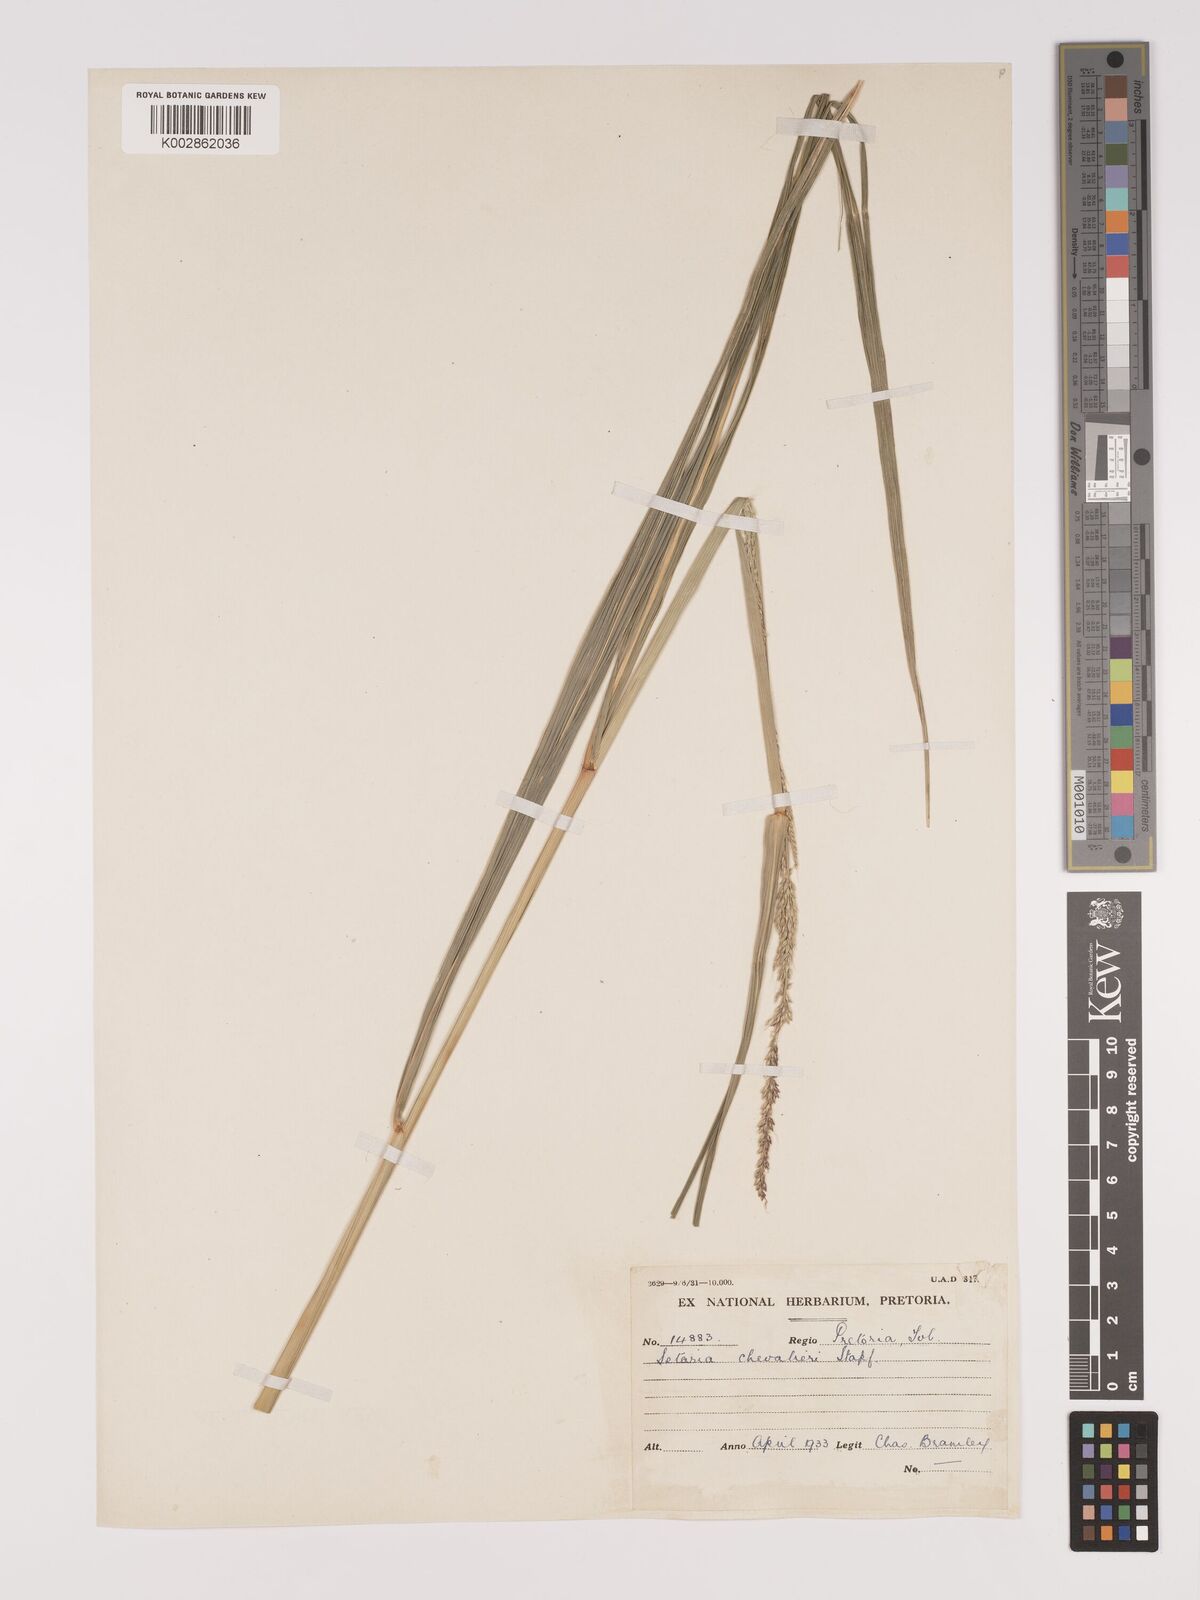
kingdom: Plantae
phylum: Tracheophyta
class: Liliopsida
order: Poales
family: Poaceae
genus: Setaria
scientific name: Setaria megaphylla
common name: Bigleaf bristlegrass
